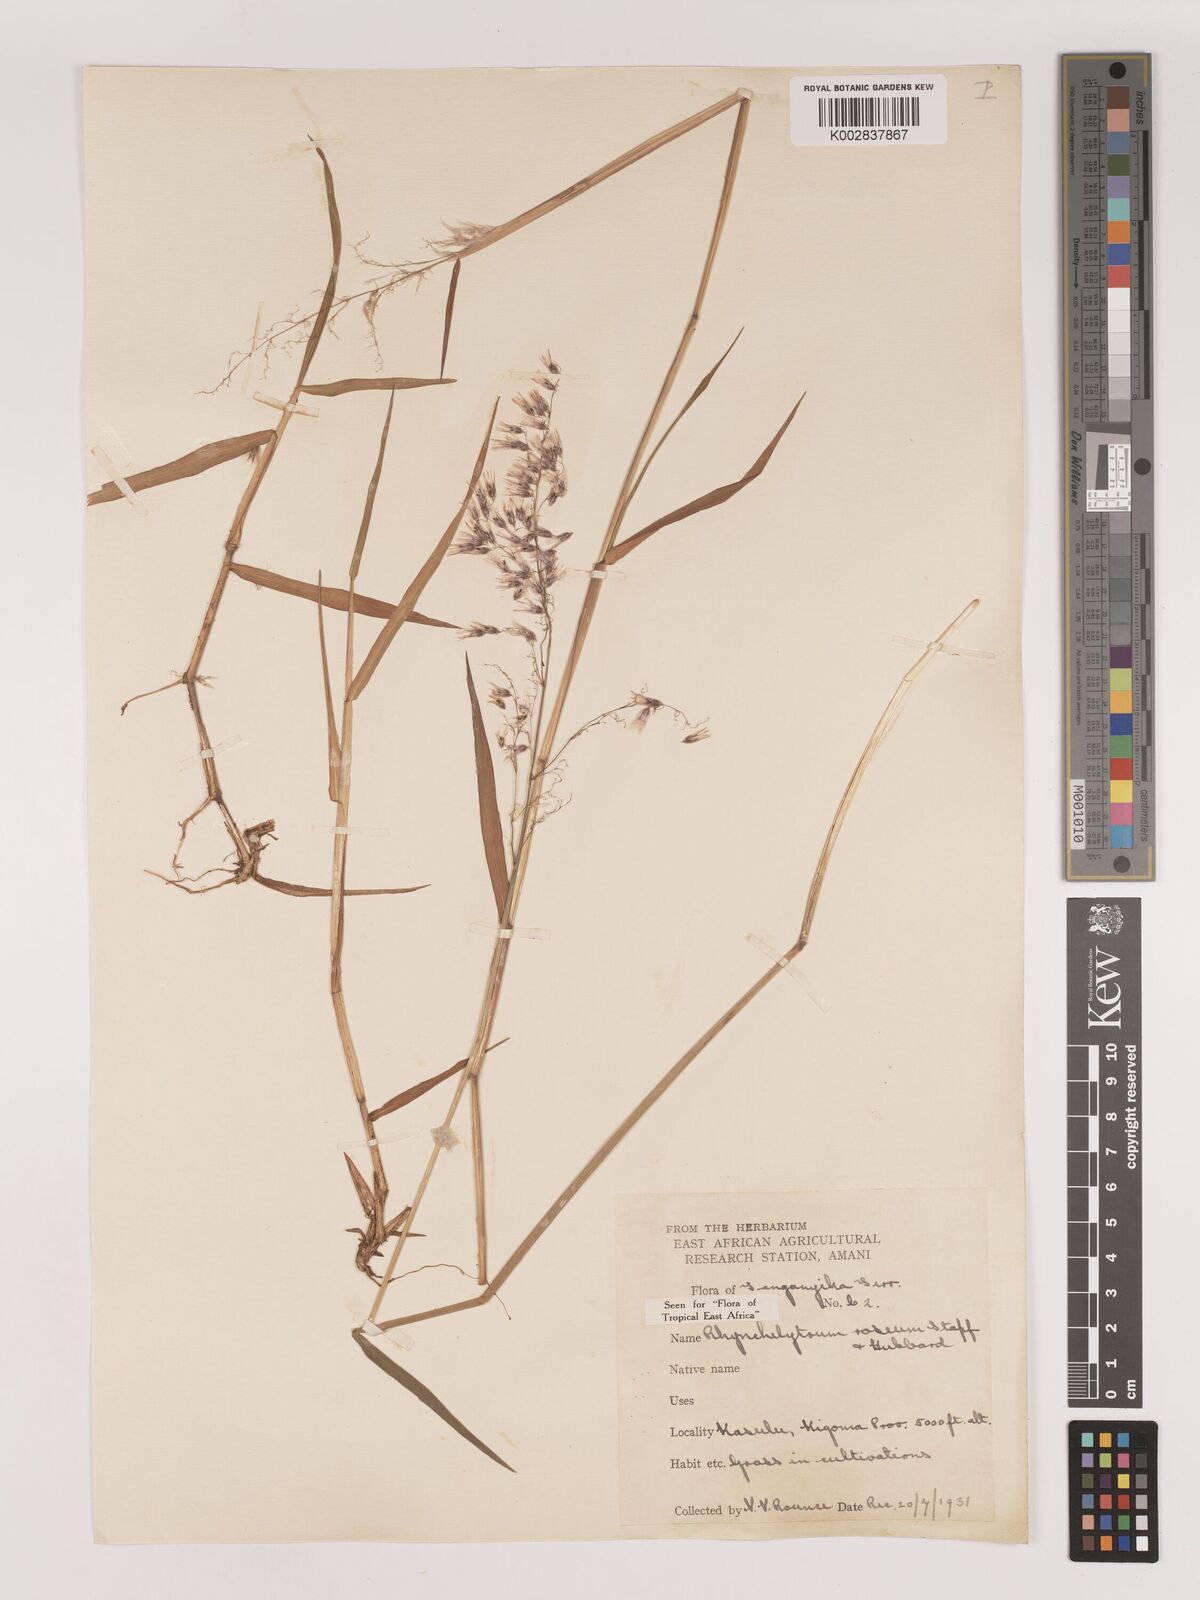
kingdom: Plantae
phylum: Tracheophyta
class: Liliopsida
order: Poales
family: Poaceae
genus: Melinis
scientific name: Melinis repens
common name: Rose natal grass
